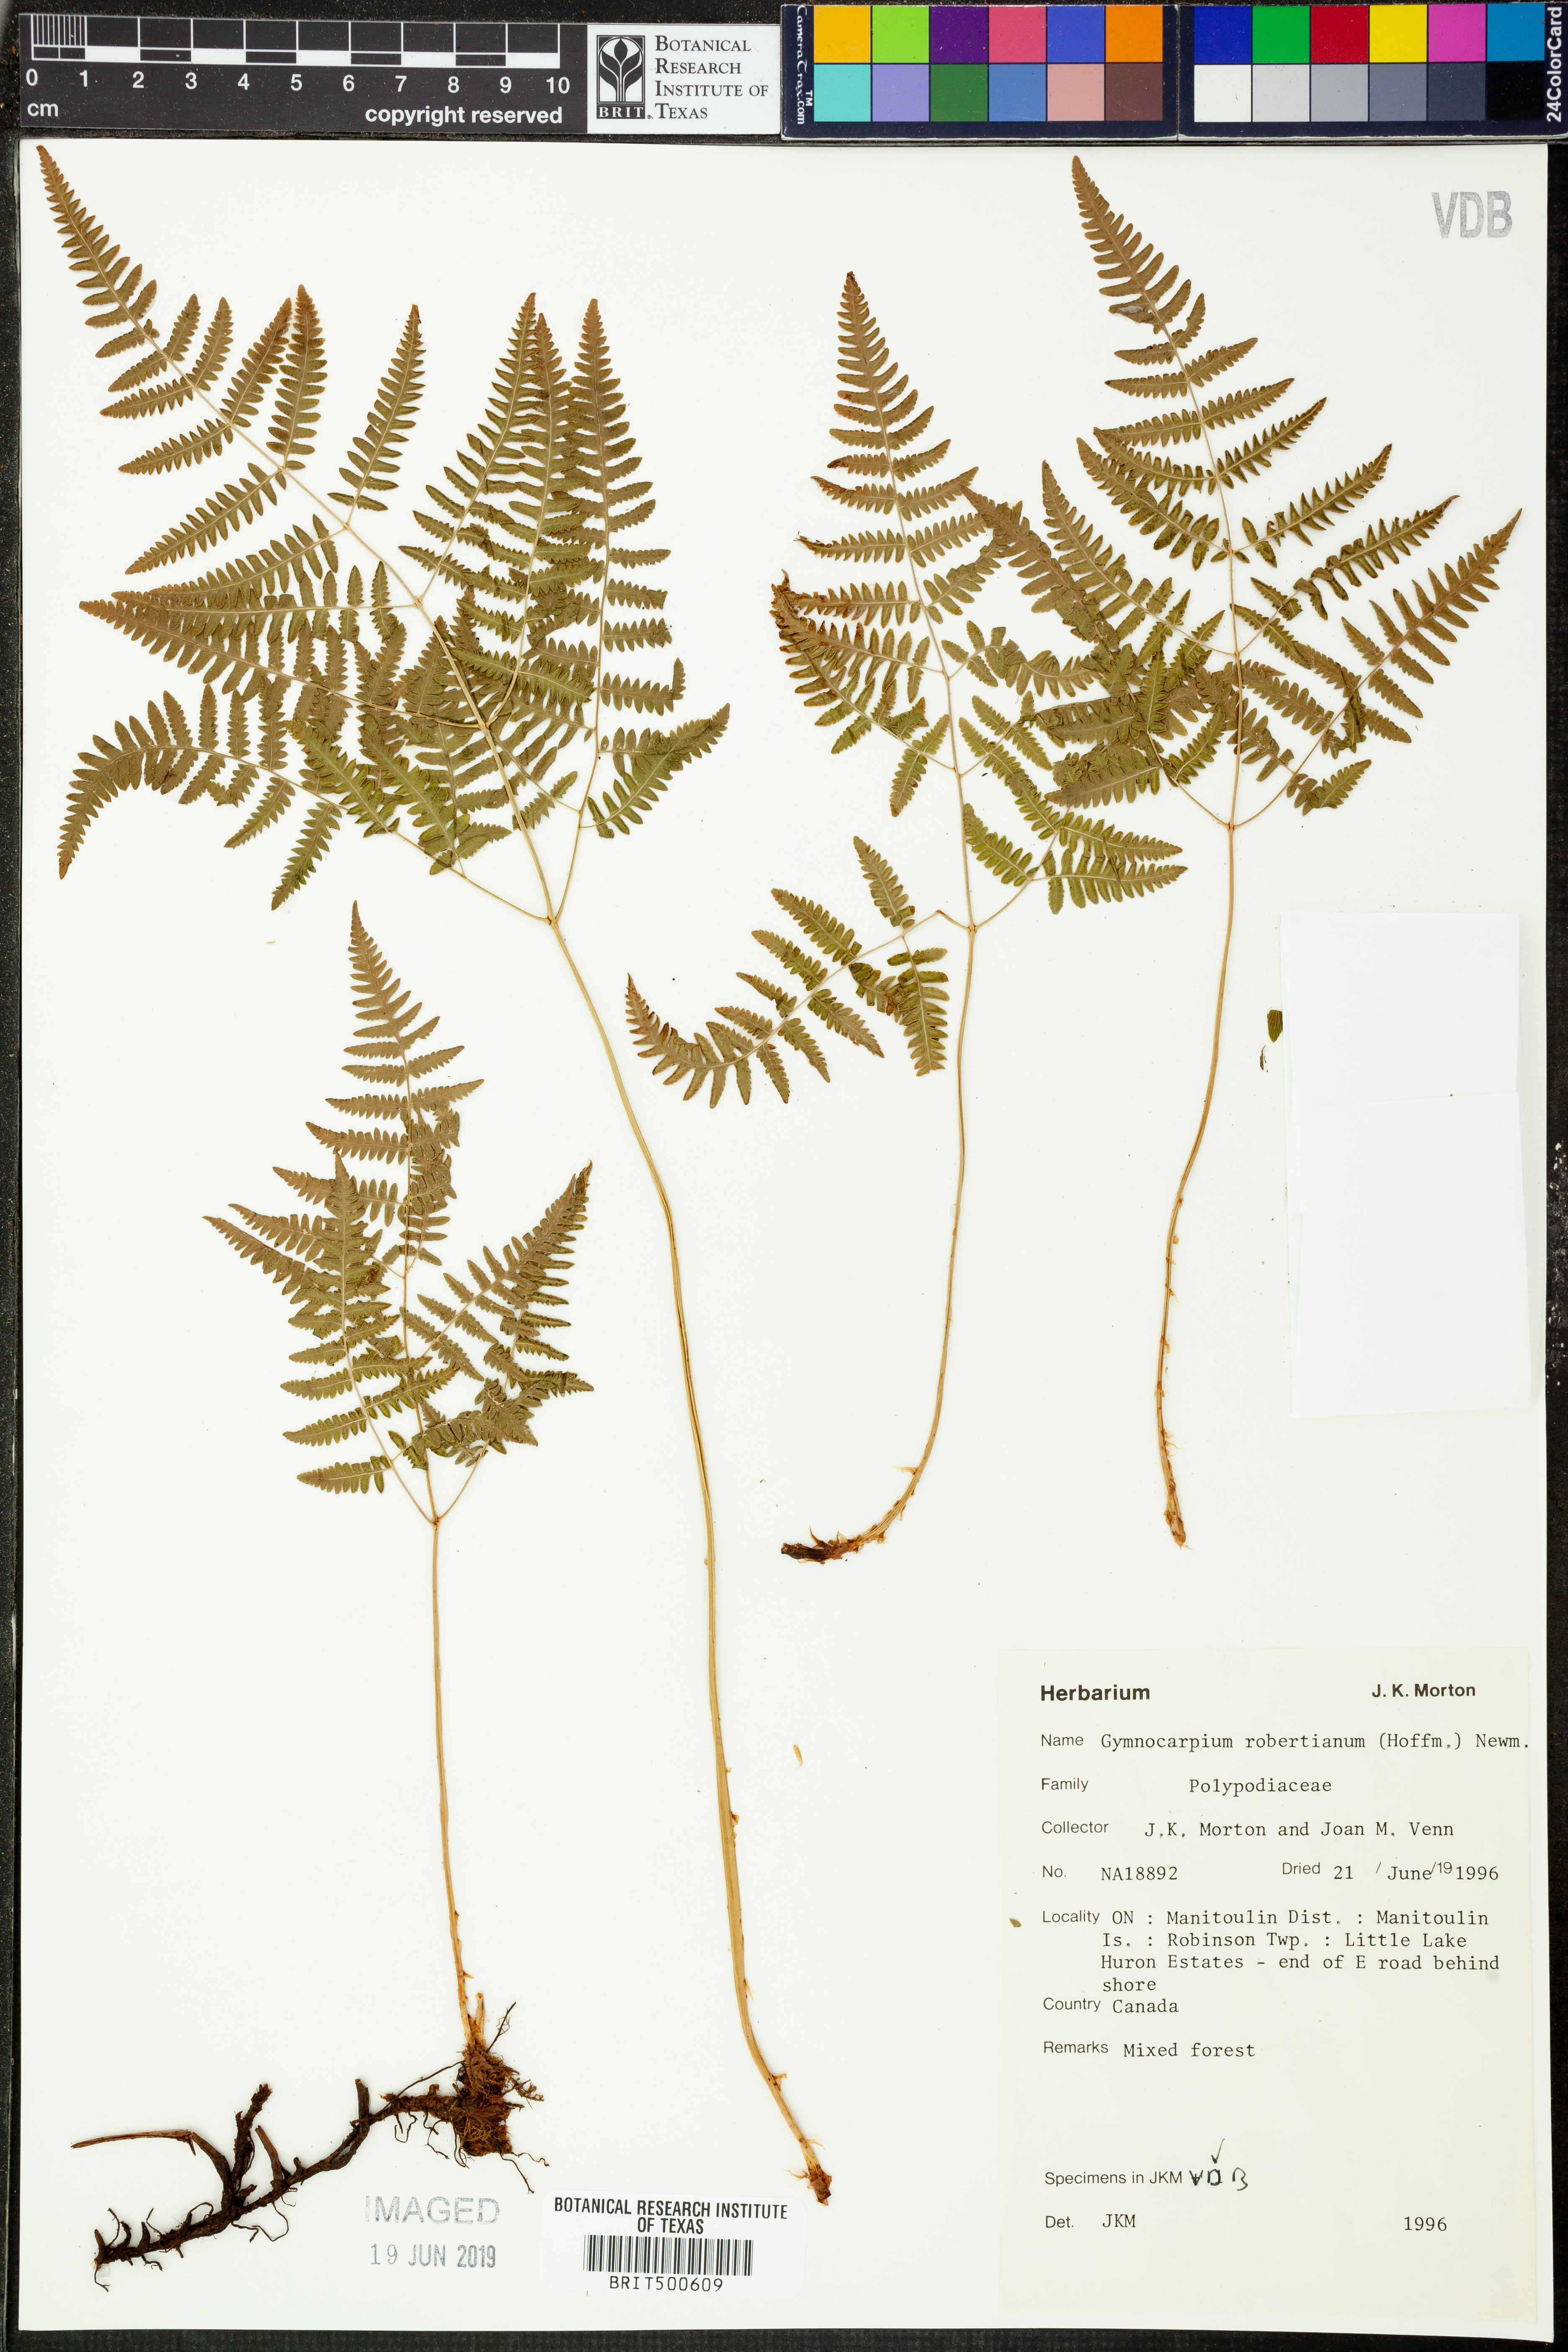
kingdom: Plantae
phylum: Tracheophyta
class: Polypodiopsida
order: Polypodiales
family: Cystopteridaceae
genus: Gymnocarpium
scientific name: Gymnocarpium robertianum
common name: Limestone fern
